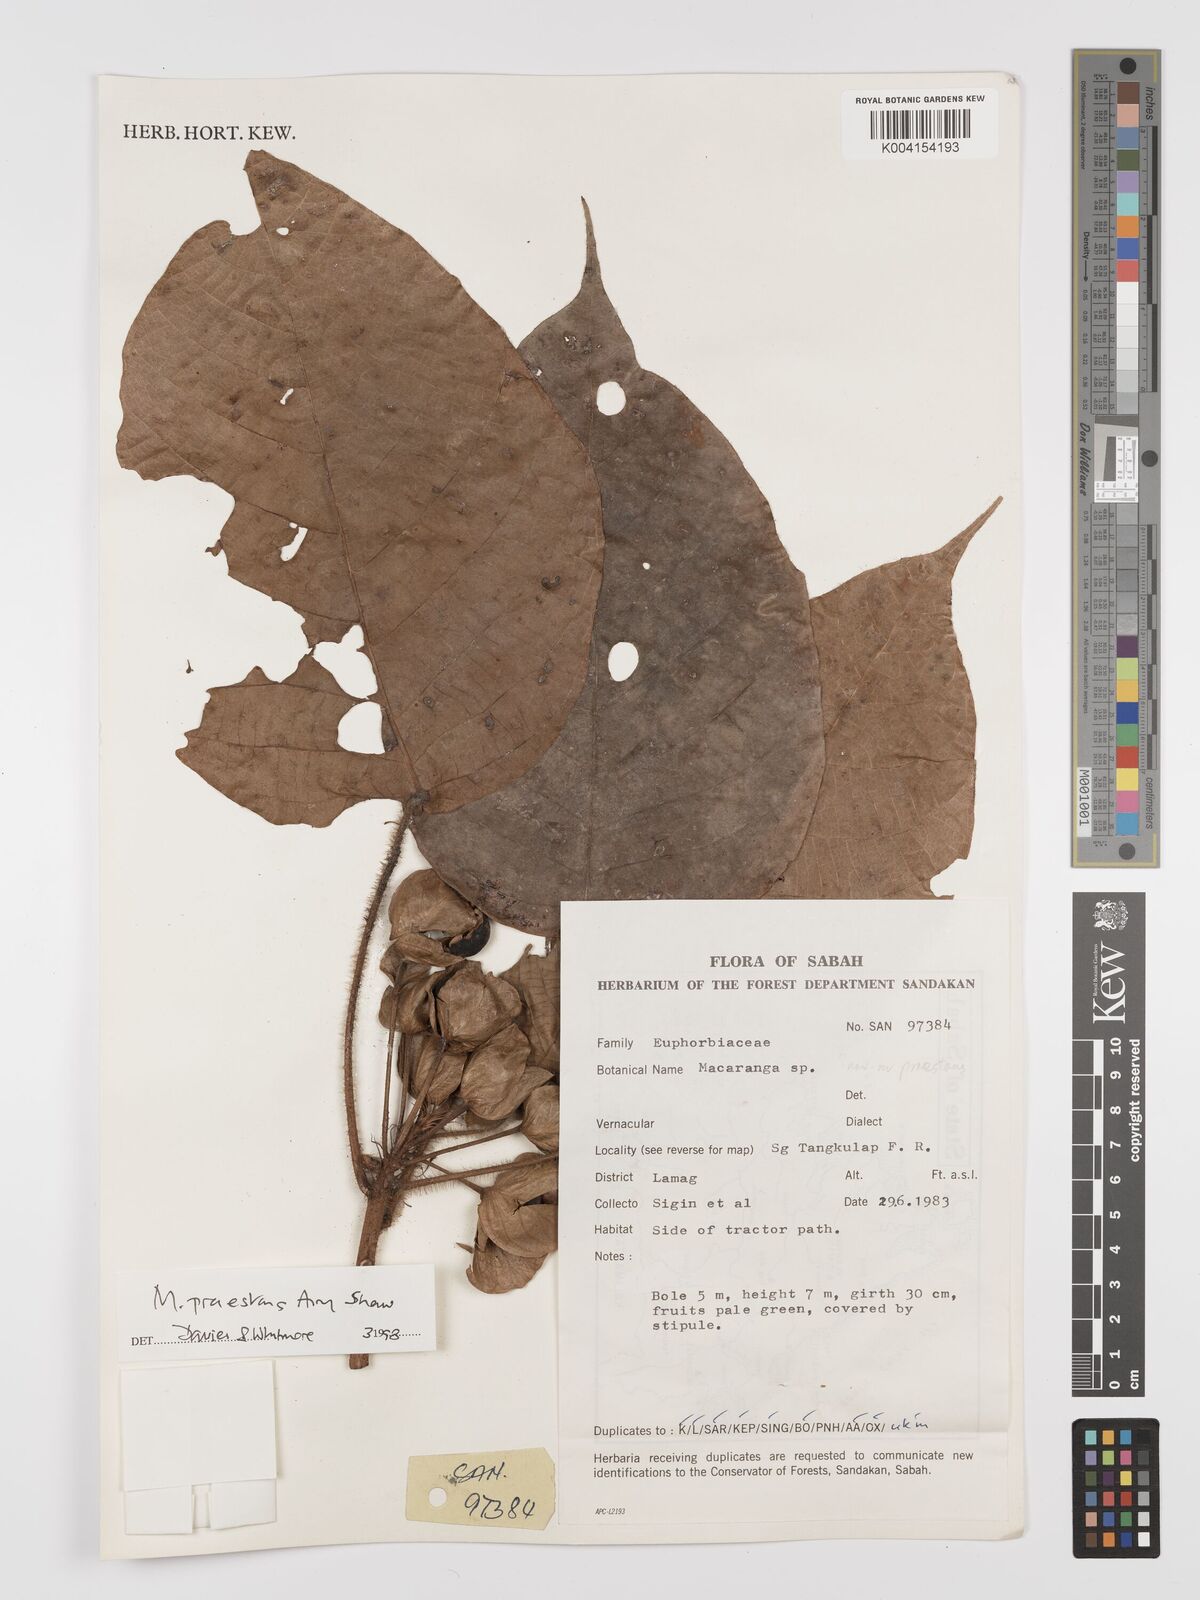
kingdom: Plantae
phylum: Tracheophyta
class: Magnoliopsida
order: Malpighiales
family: Euphorbiaceae
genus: Macaranga
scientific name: Macaranga praestans
